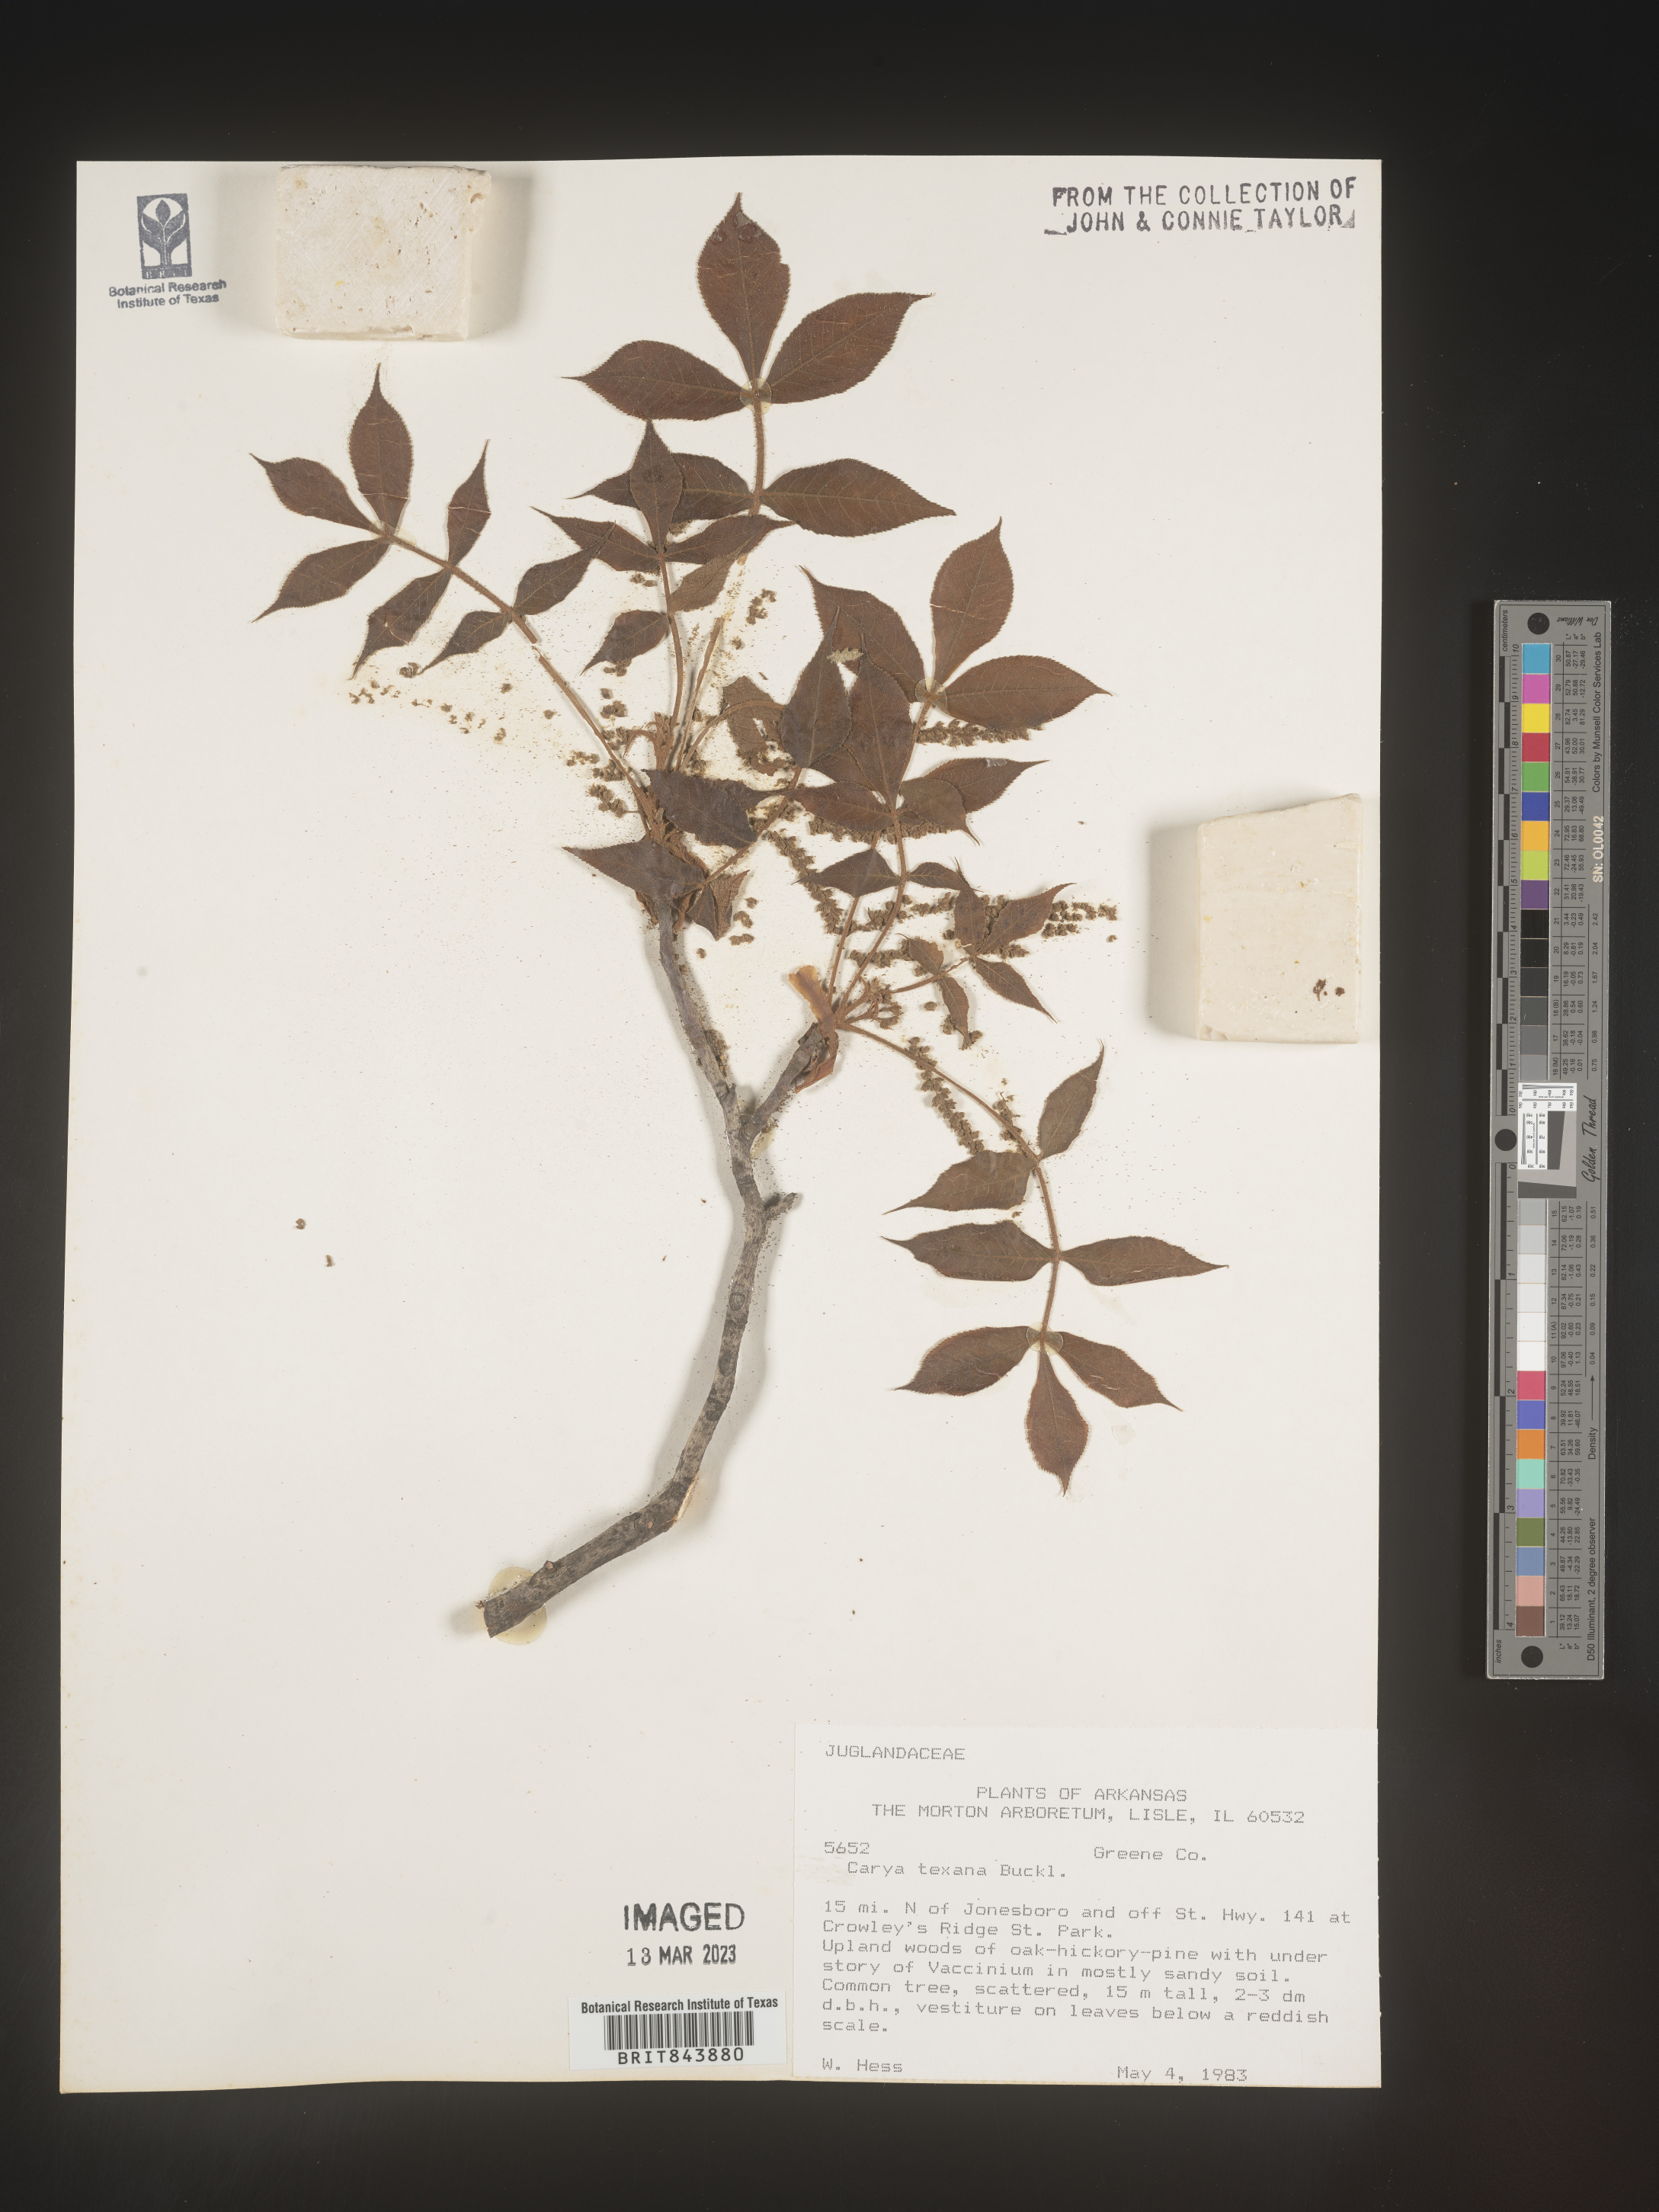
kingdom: Plantae
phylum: Tracheophyta
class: Magnoliopsida
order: Fagales
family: Juglandaceae
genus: Carya
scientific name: Carya texana
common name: Black hickory
